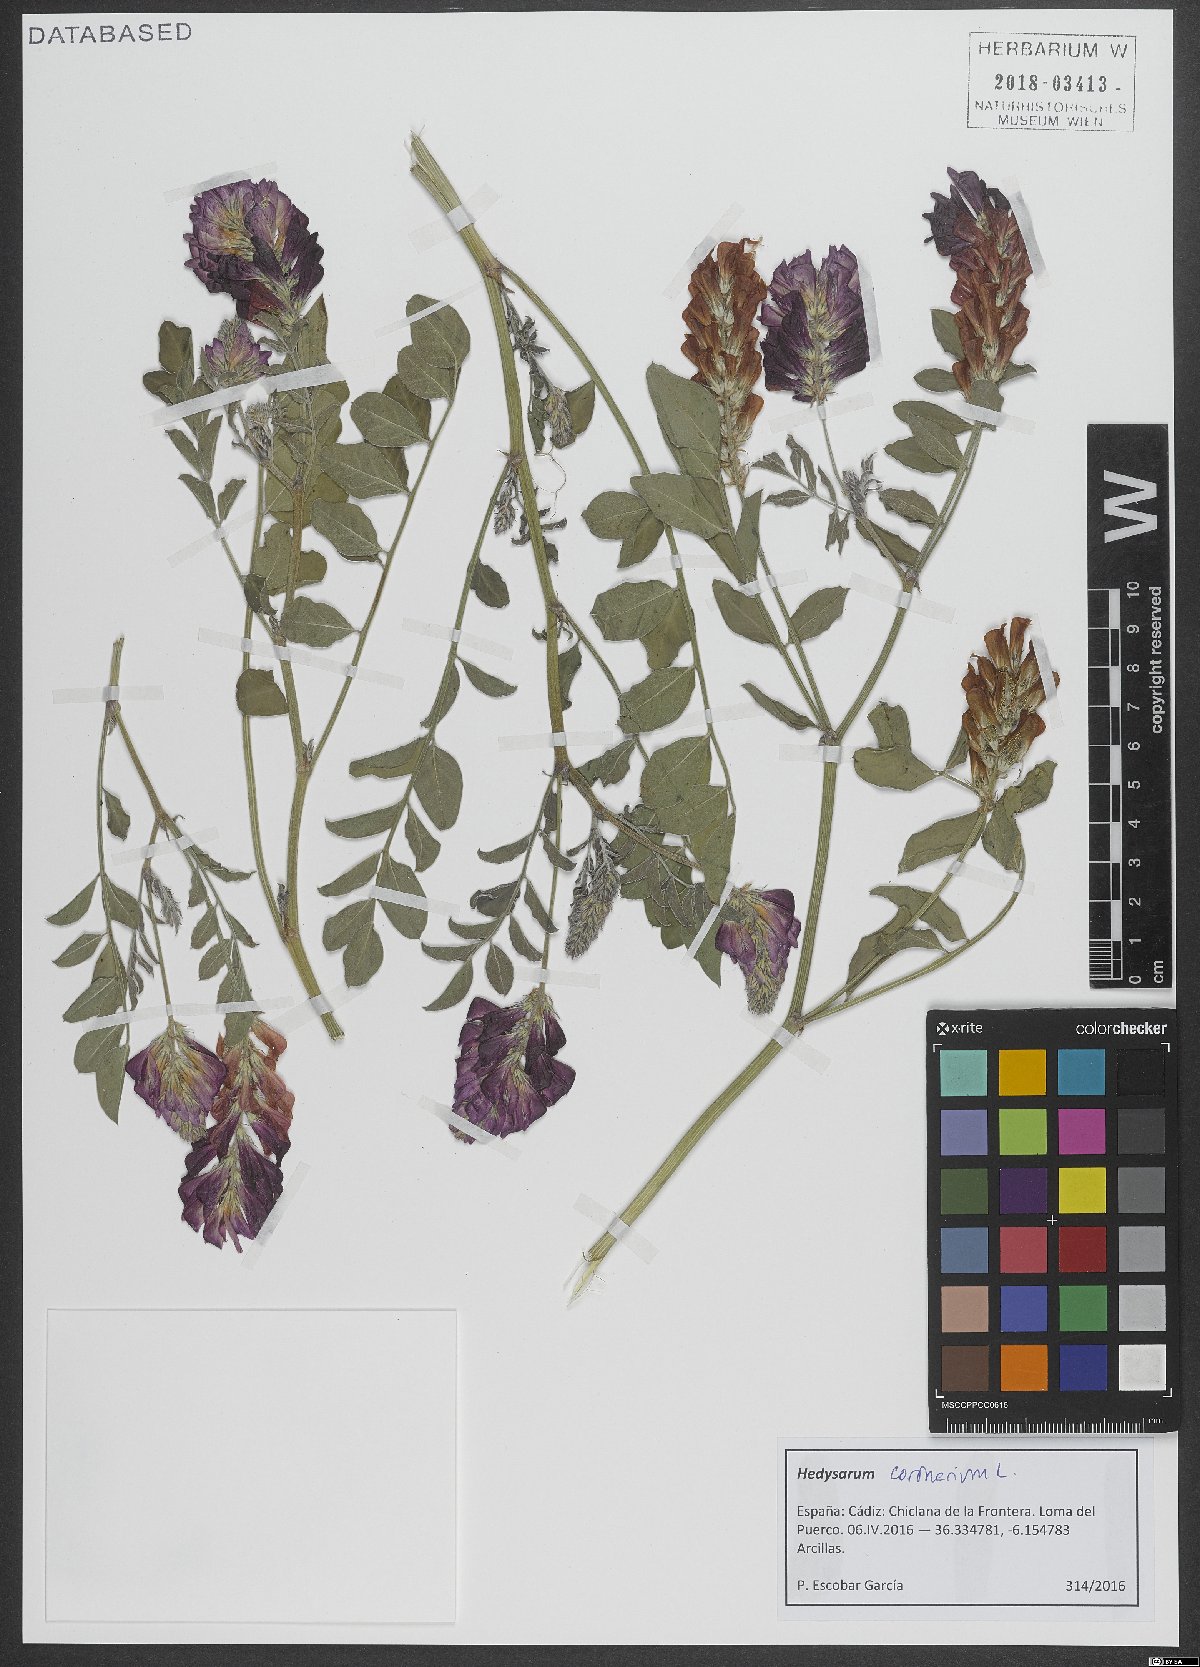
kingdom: Plantae
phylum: Tracheophyta
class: Magnoliopsida
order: Fabales
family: Fabaceae
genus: Sulla
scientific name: Sulla coronaria
